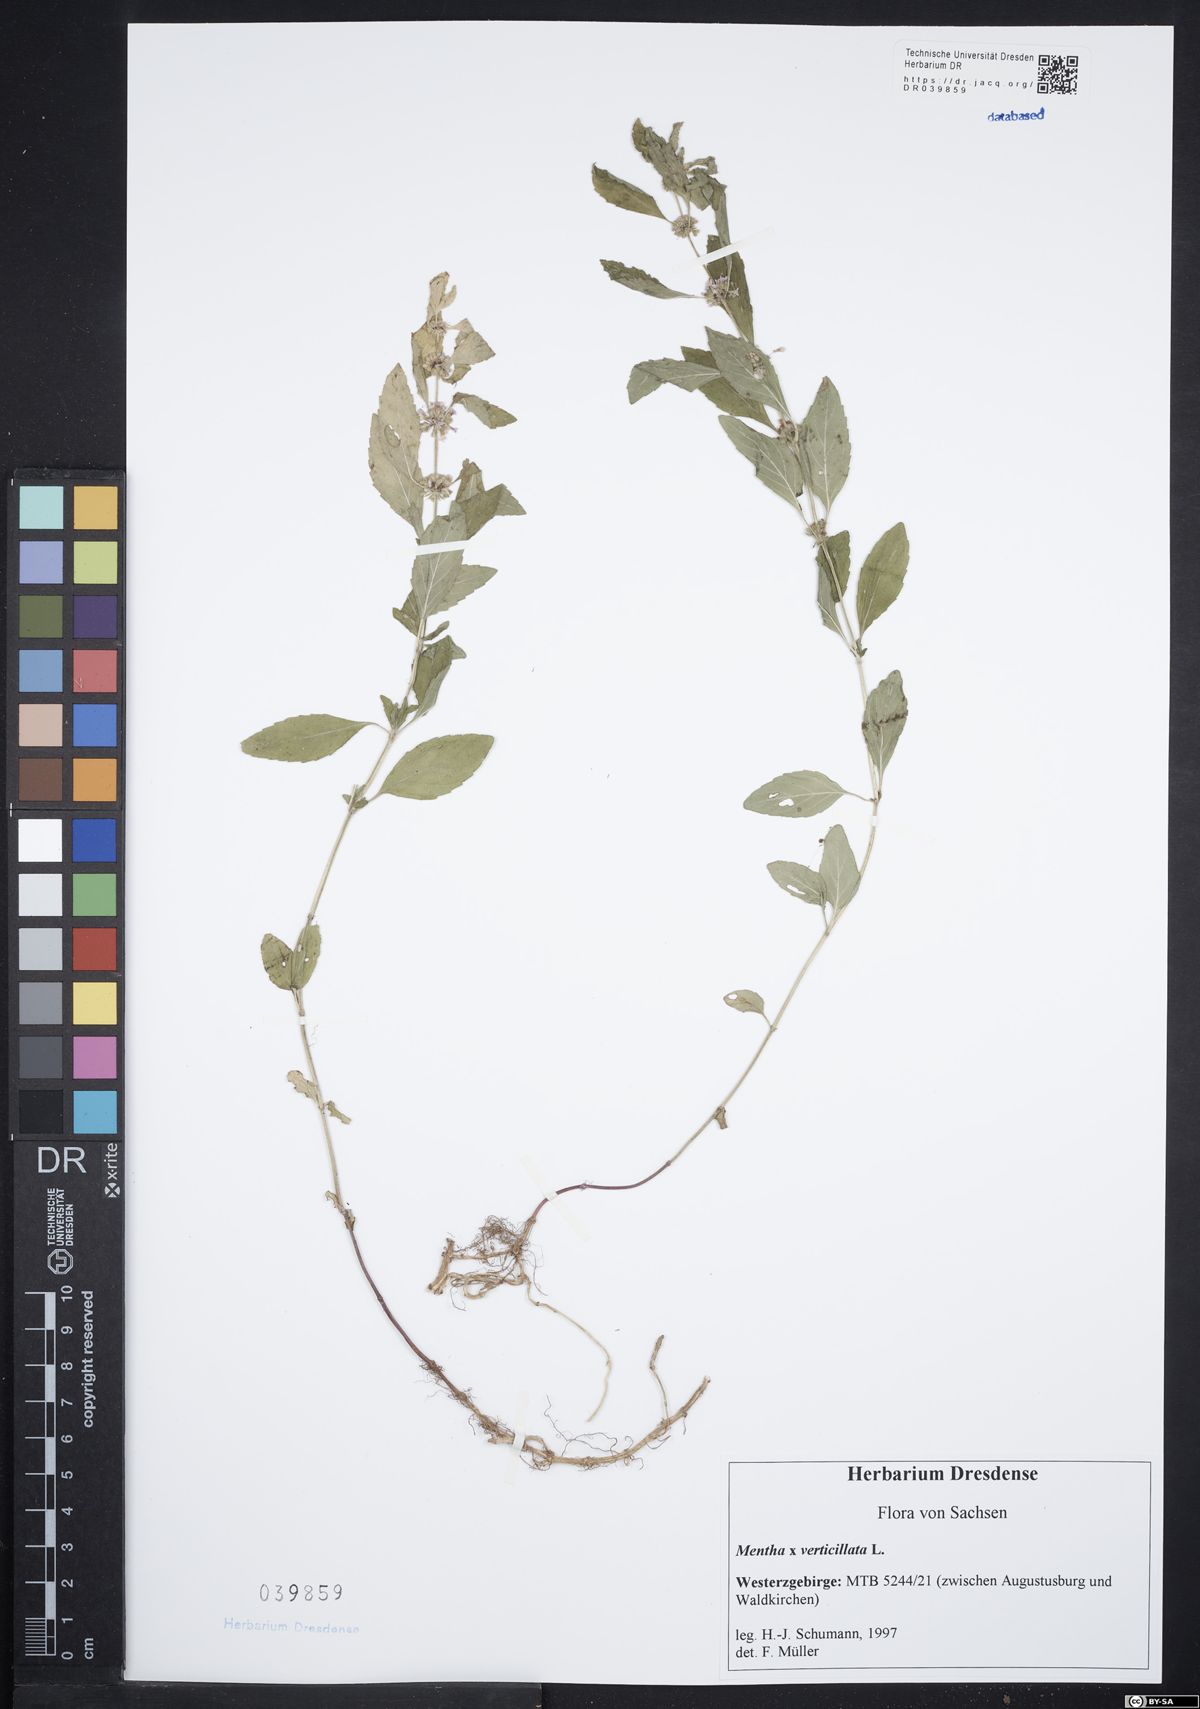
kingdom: Plantae
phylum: Tracheophyta
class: Magnoliopsida
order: Lamiales
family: Lamiaceae
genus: Mentha
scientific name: Mentha verticillata
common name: Mint
